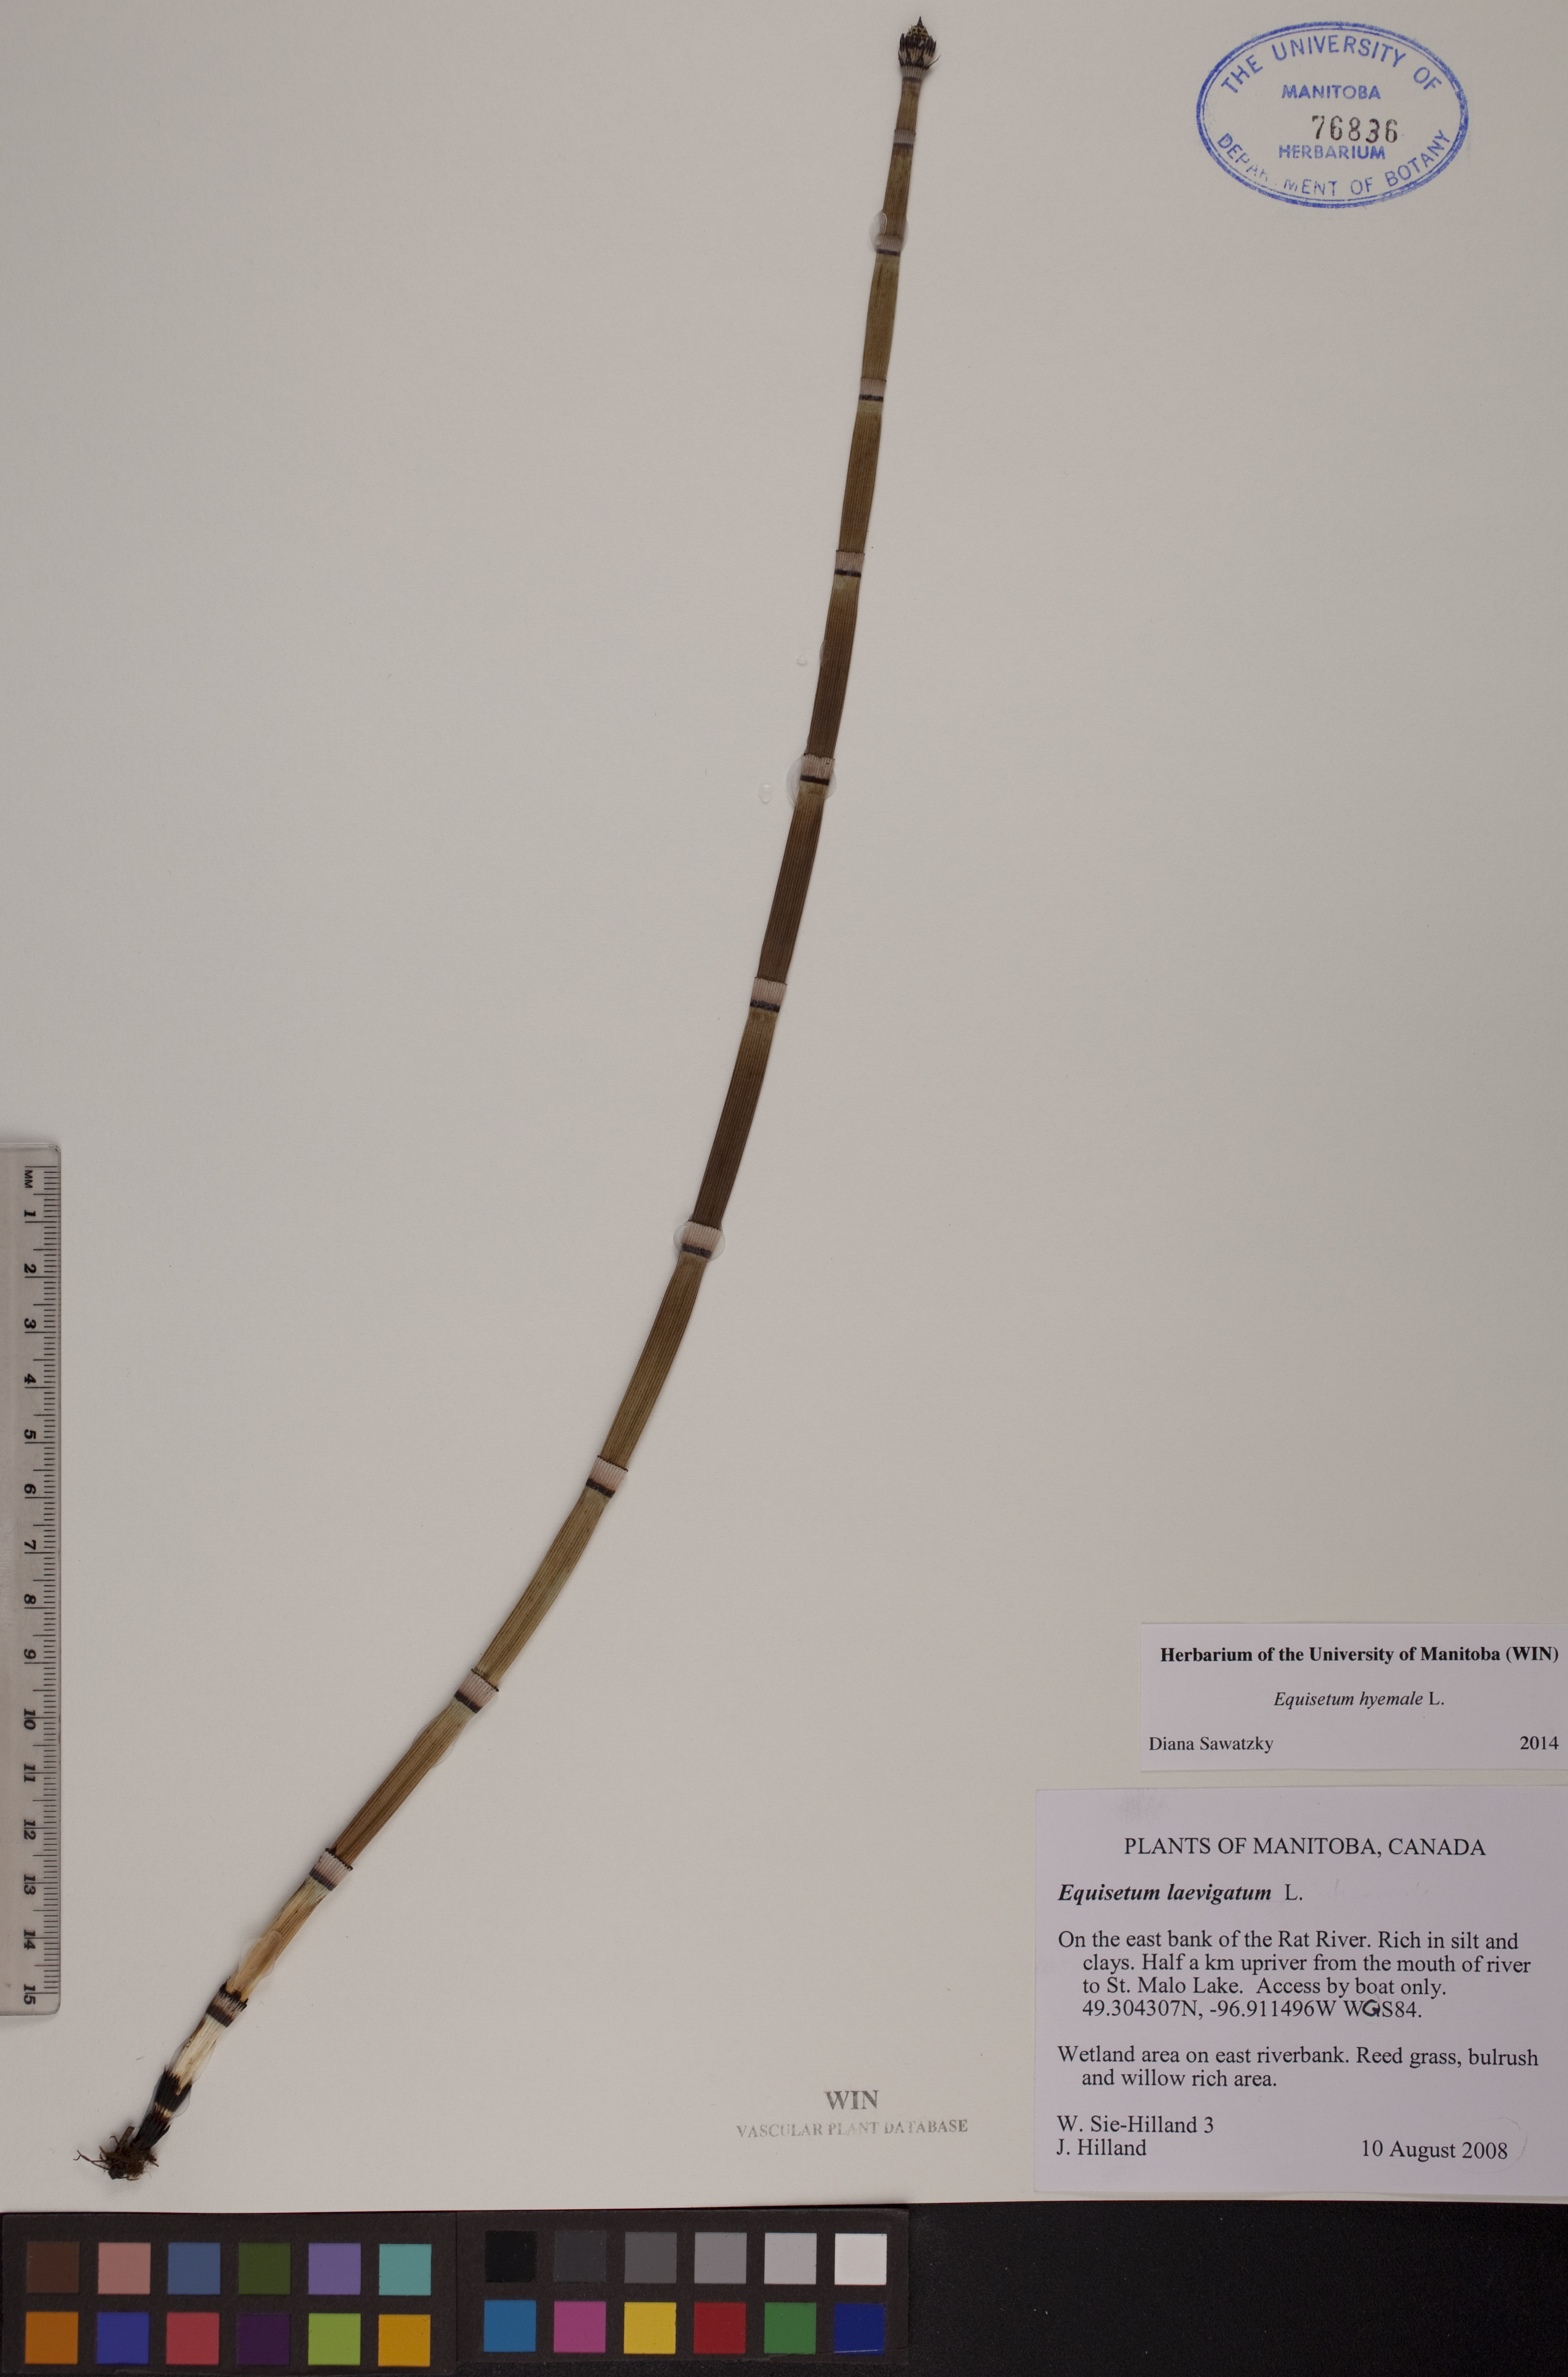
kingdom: Plantae
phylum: Tracheophyta
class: Polypodiopsida
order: Equisetales
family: Equisetaceae
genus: Equisetum
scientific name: Equisetum hyemale
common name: Rough horsetail
